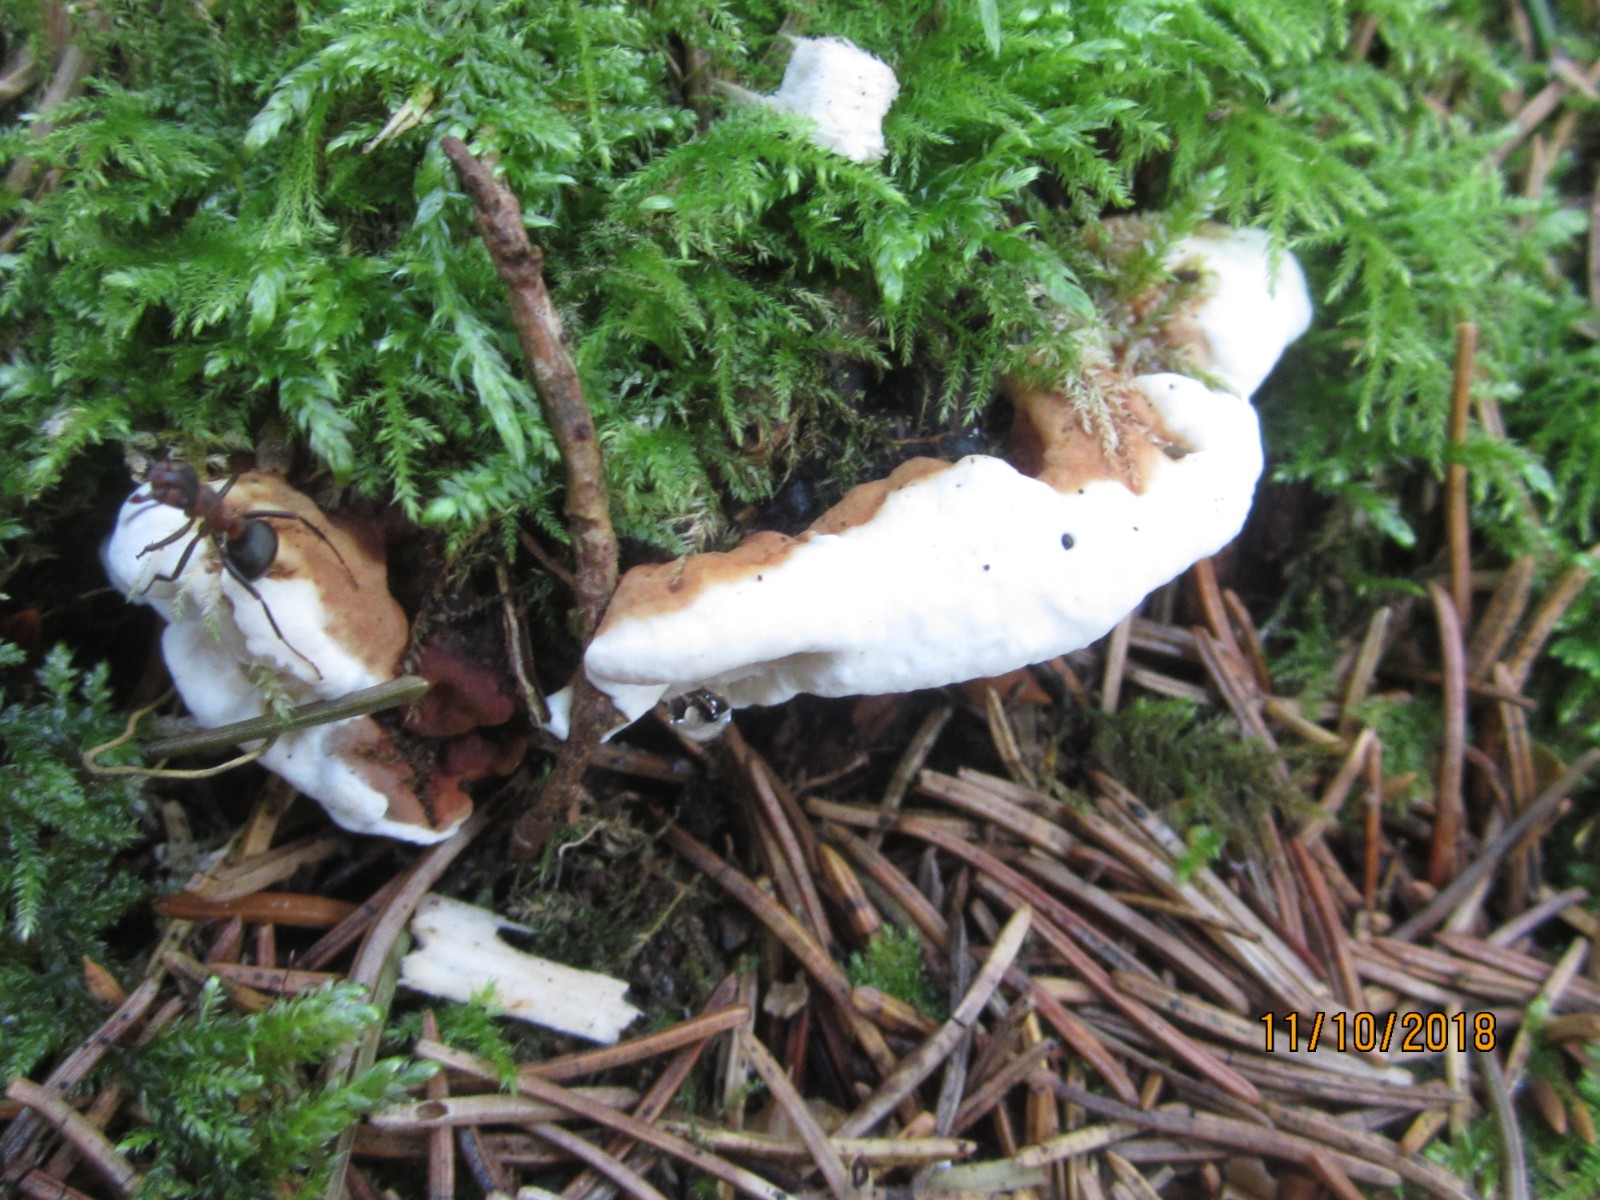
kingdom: Fungi
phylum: Basidiomycota
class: Agaricomycetes
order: Russulales
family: Bondarzewiaceae
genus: Heterobasidion
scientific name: Heterobasidion
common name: rodfordærver
